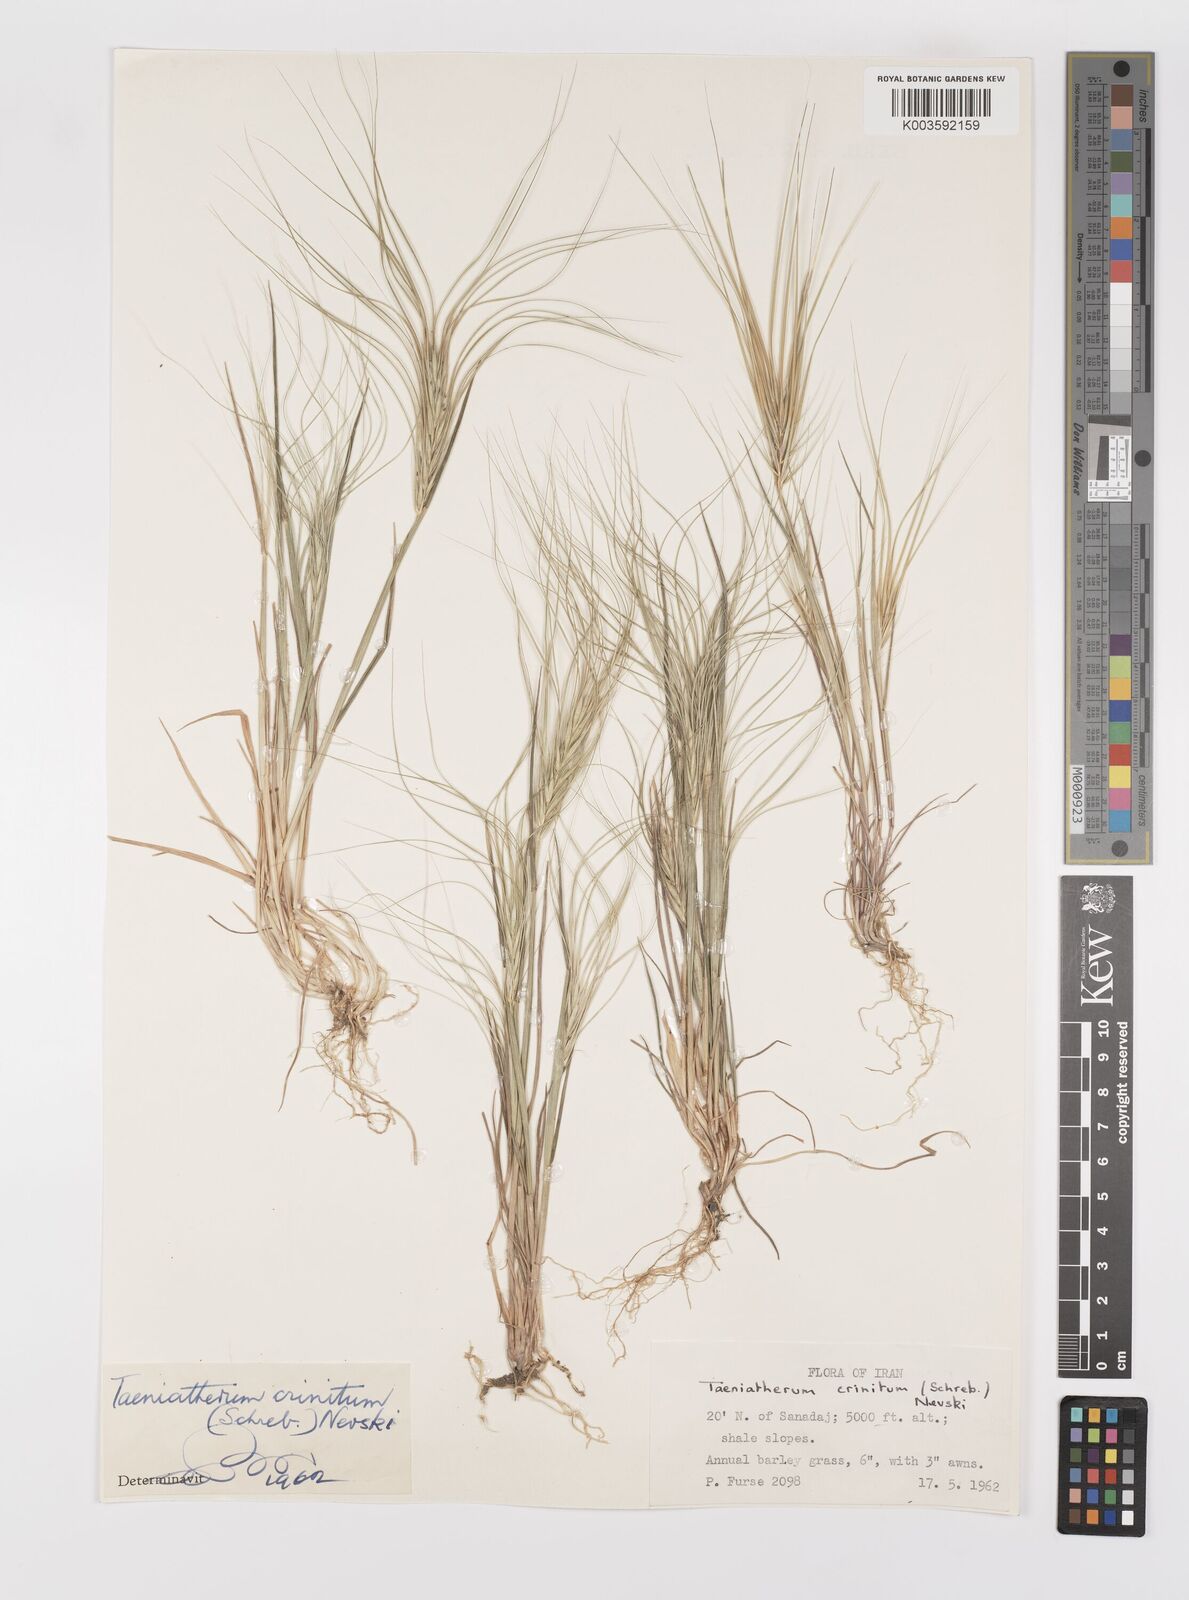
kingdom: Plantae
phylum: Tracheophyta
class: Liliopsida
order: Poales
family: Poaceae
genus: Taeniatherum
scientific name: Taeniatherum caput-medusae
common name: Medusahead
